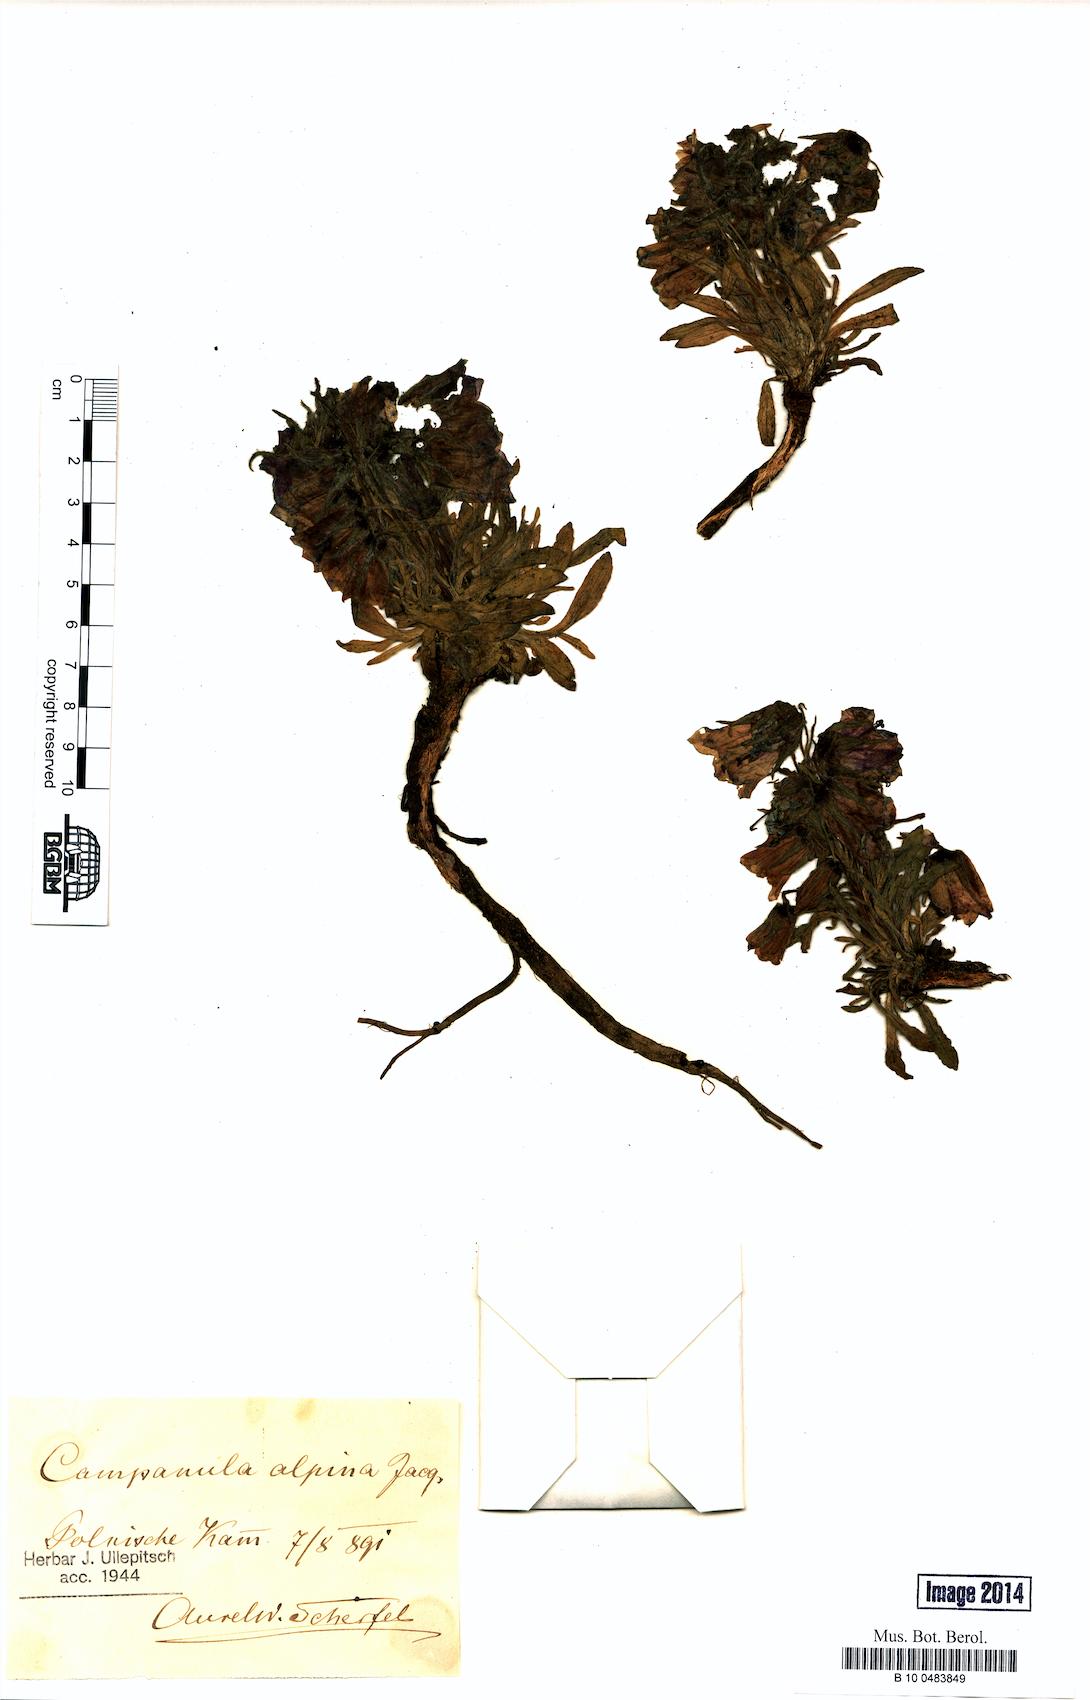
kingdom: Plantae
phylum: Tracheophyta
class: Magnoliopsida
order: Asterales
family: Campanulaceae
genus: Campanula
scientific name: Campanula alpina
